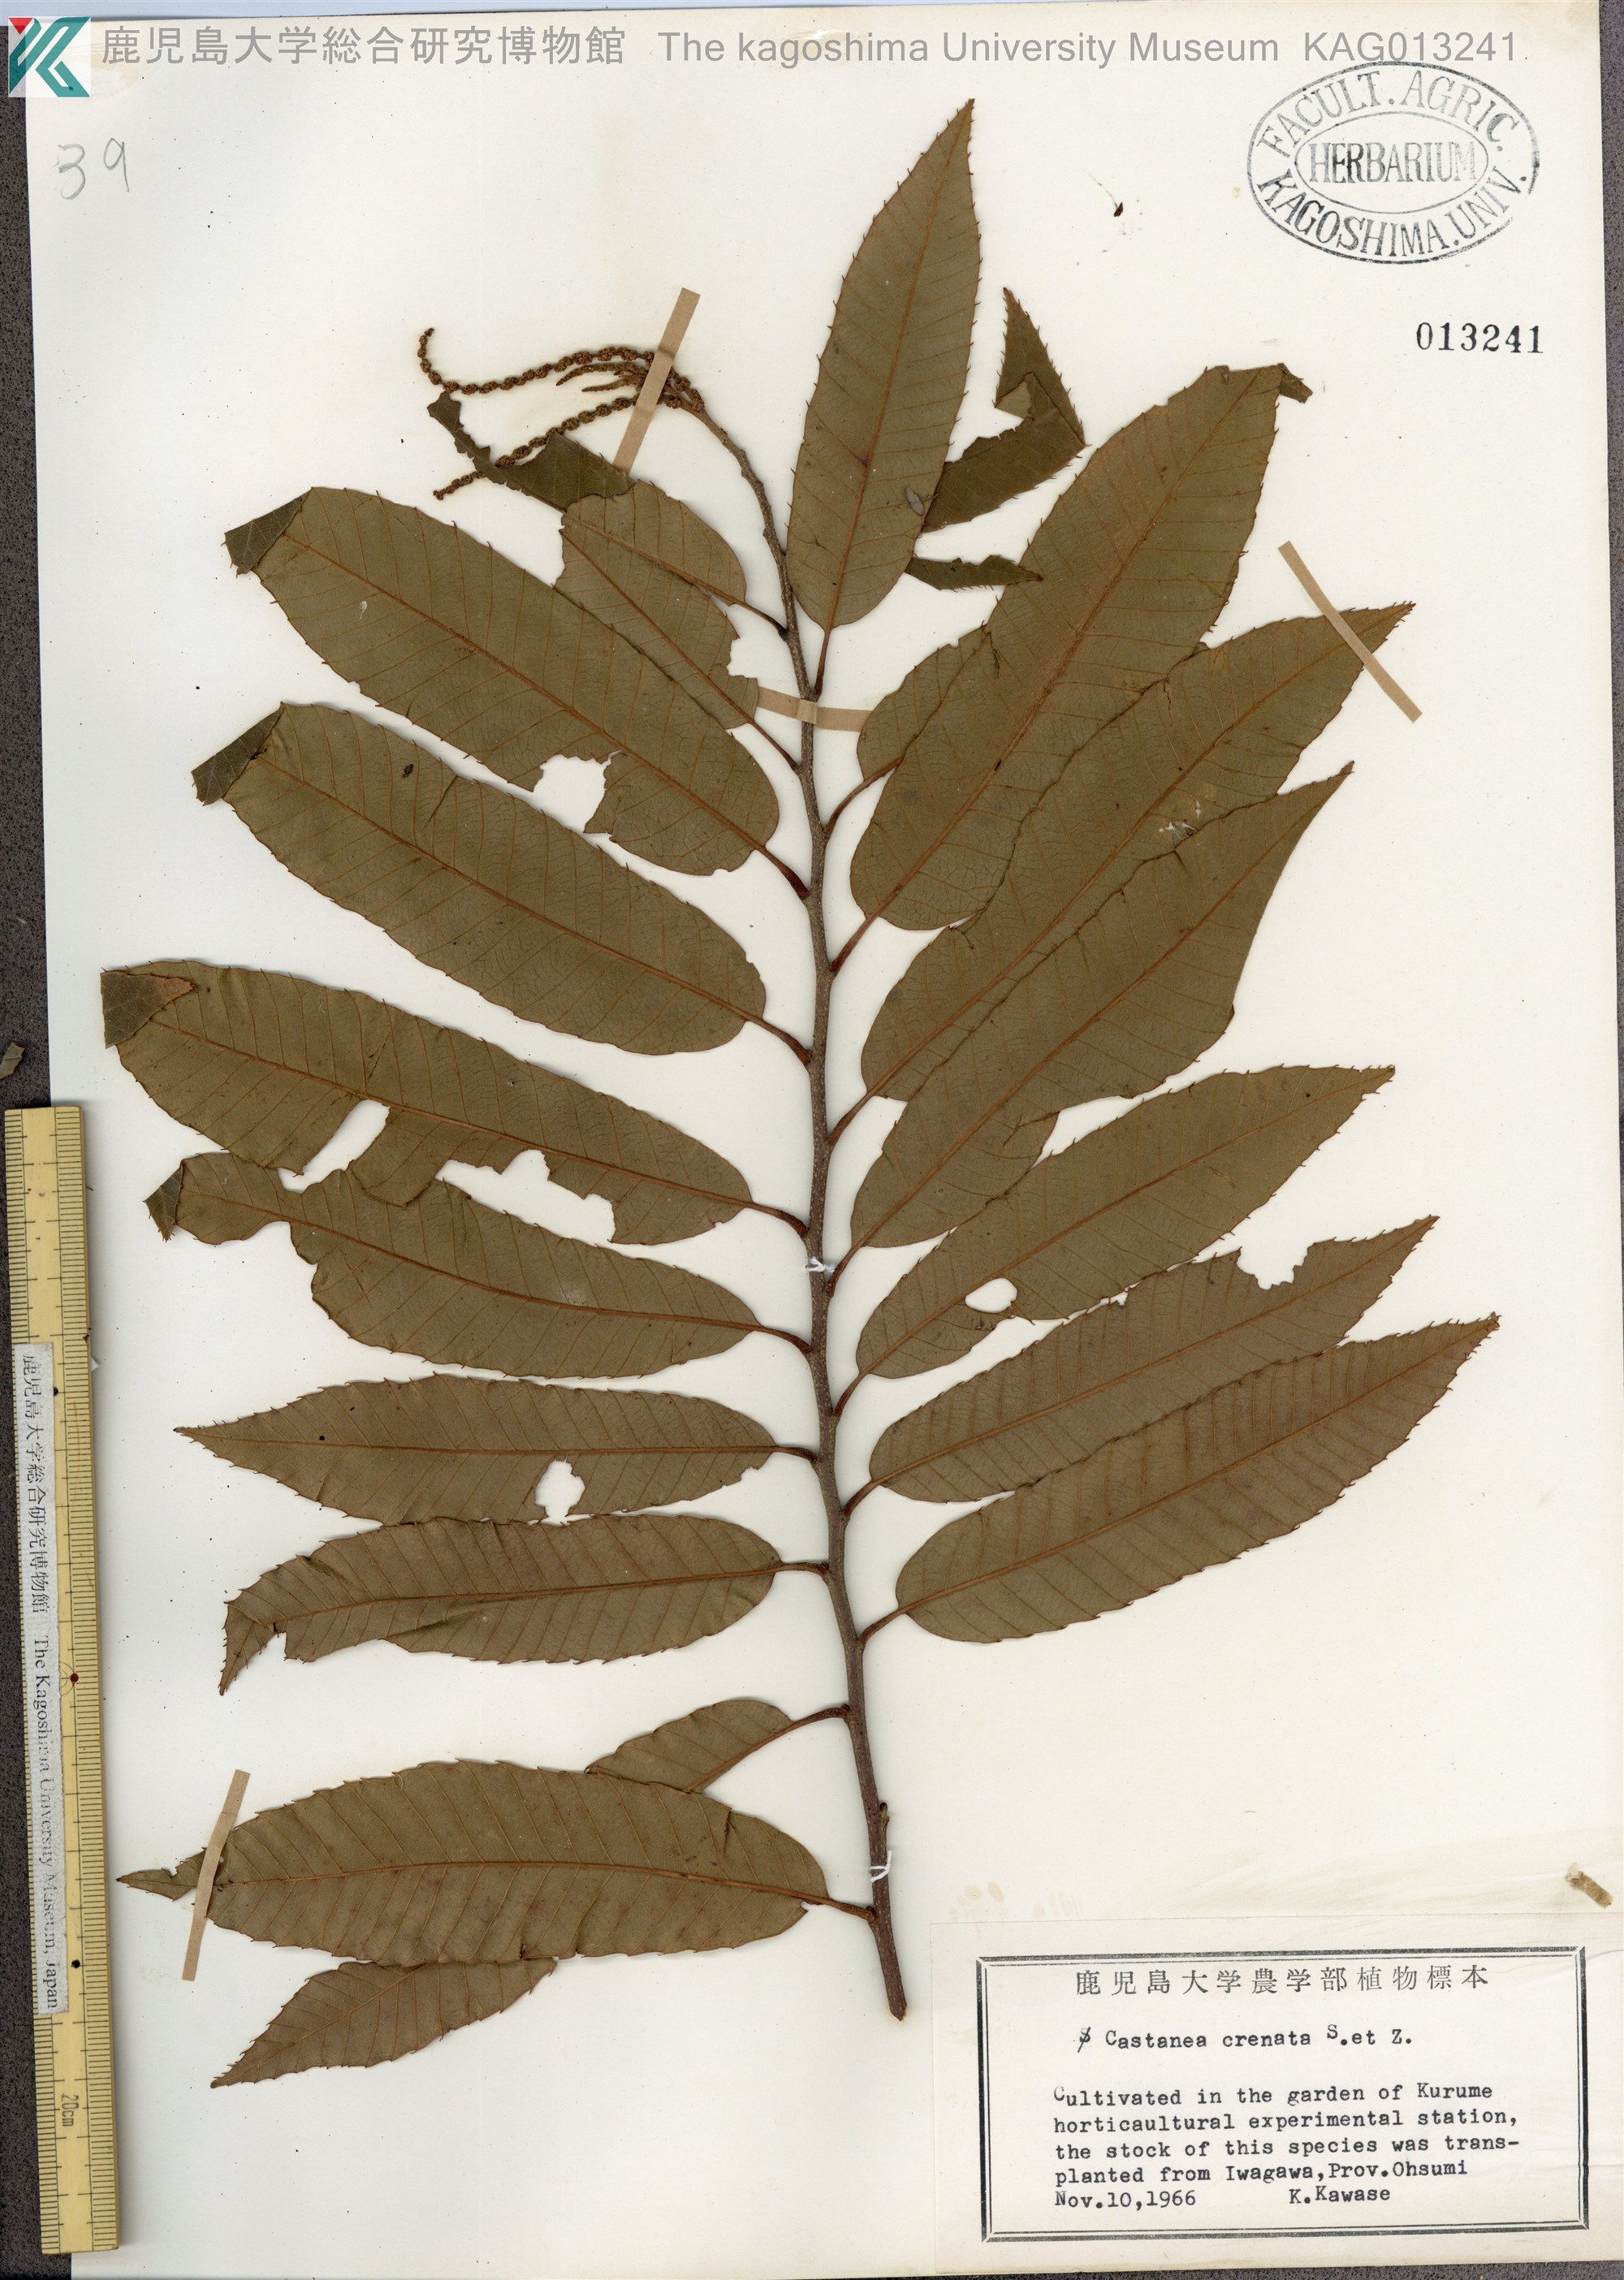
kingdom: Plantae
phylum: Tracheophyta
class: Magnoliopsida
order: Fagales
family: Fagaceae
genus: Castanea
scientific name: Castanea crenata
